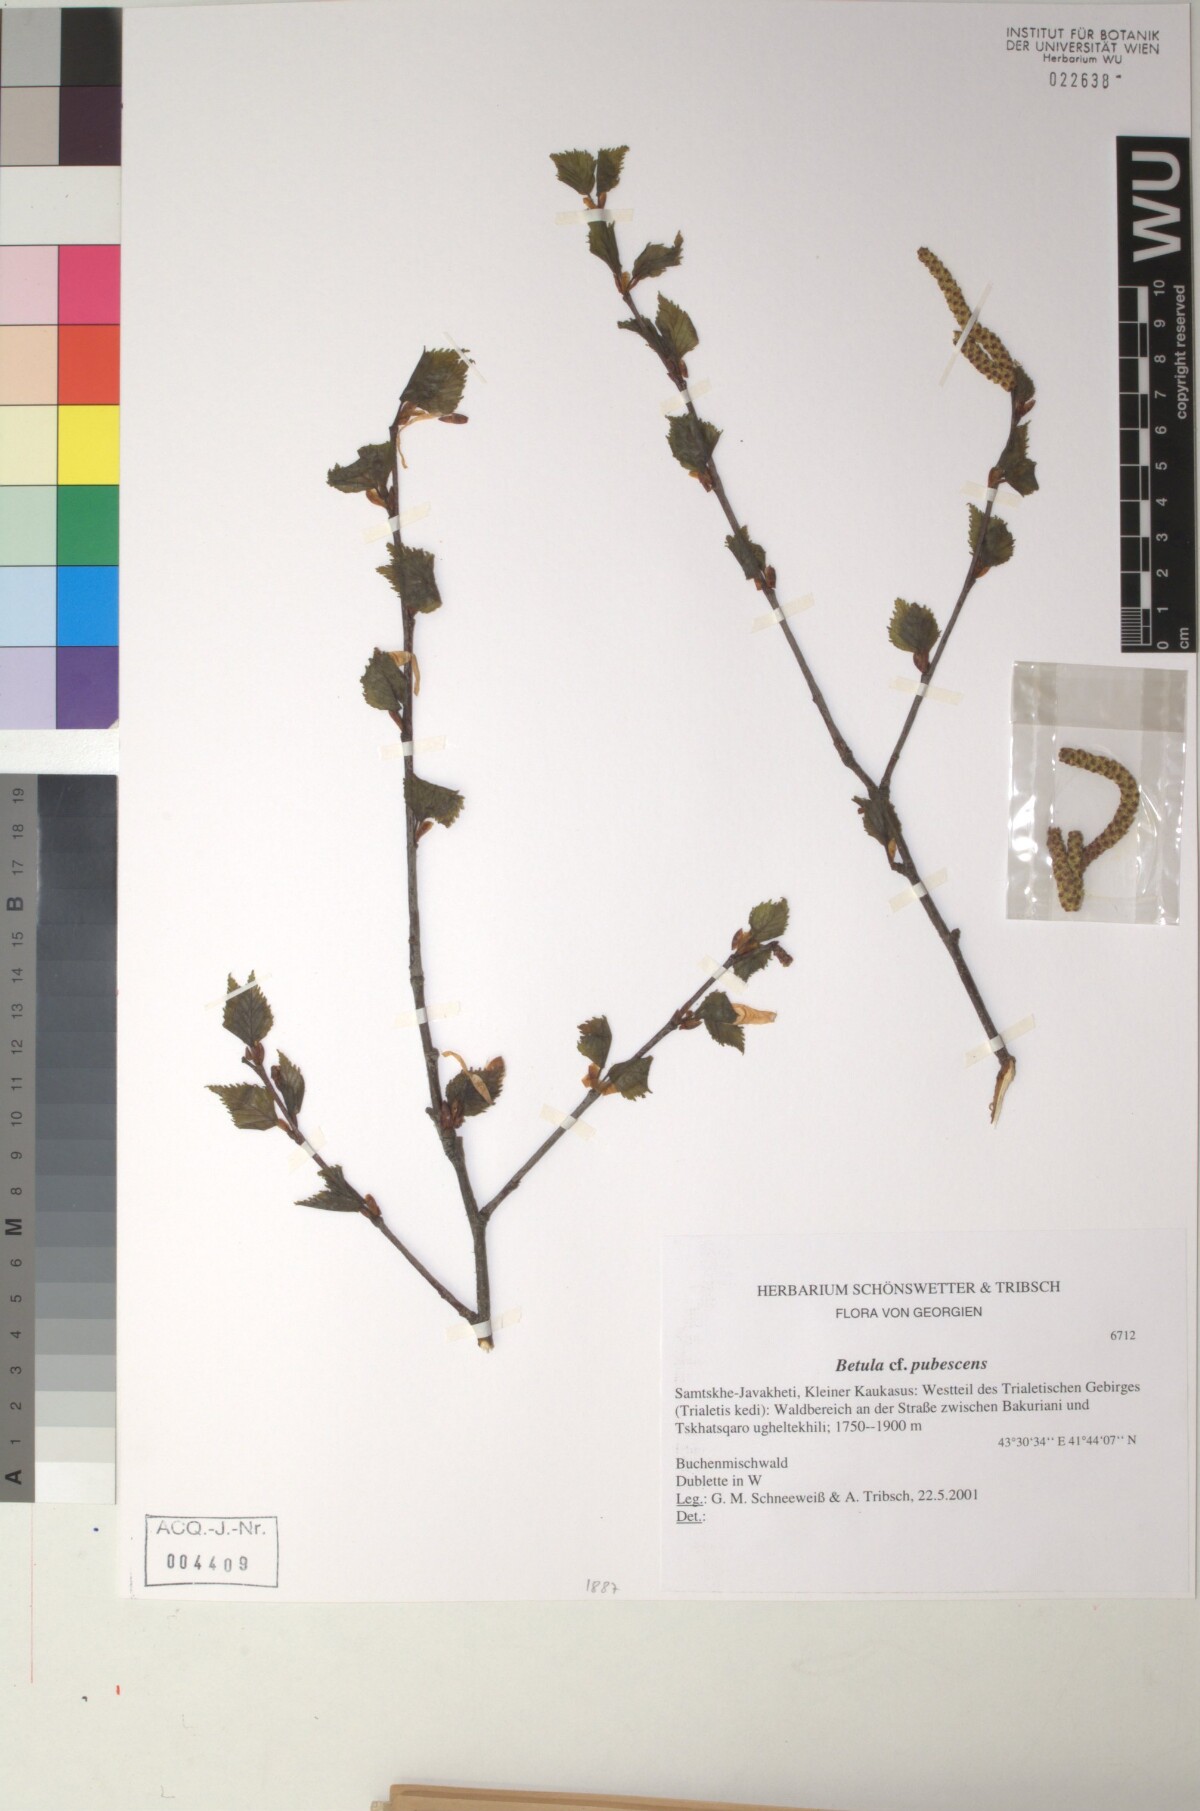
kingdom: Plantae
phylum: Tracheophyta
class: Magnoliopsida
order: Fagales
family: Betulaceae
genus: Betula
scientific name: Betula pubescens
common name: Downy birch
